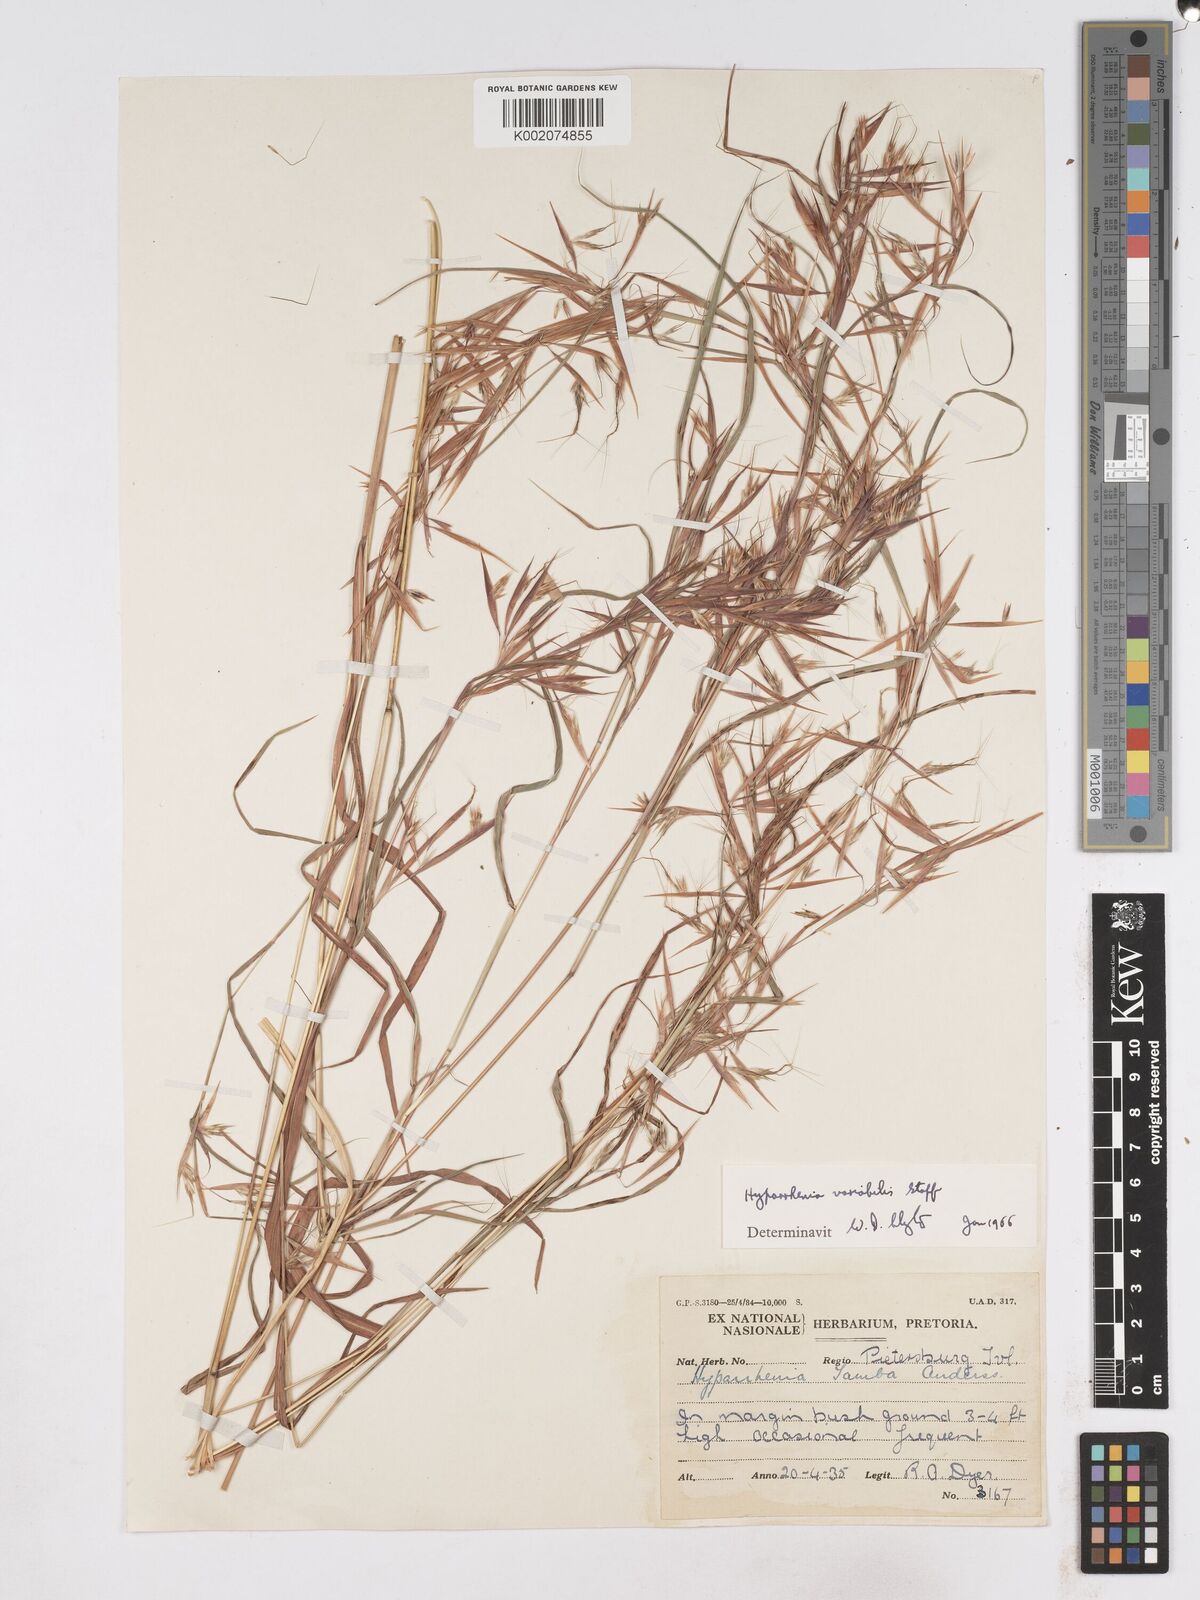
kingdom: Plantae
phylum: Tracheophyta
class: Liliopsida
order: Poales
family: Poaceae
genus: Hyparrhenia
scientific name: Hyparrhenia variabilis
